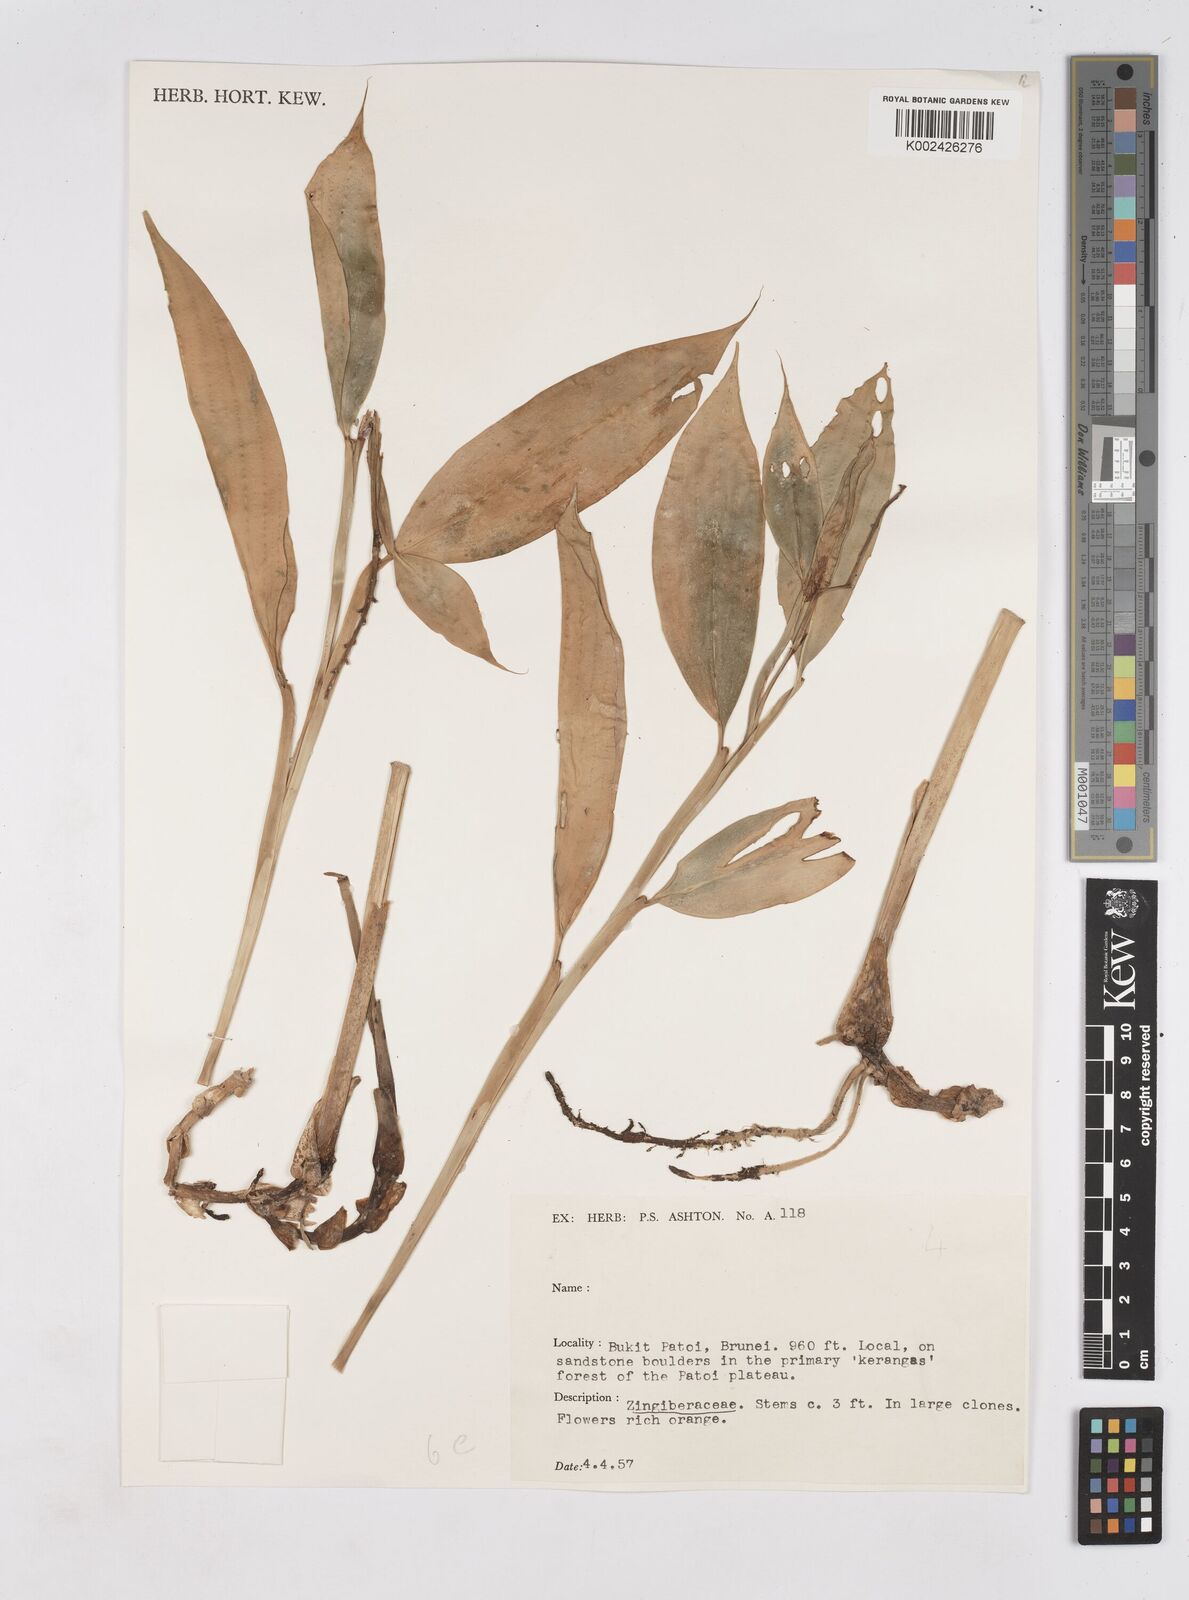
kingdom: Plantae
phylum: Tracheophyta
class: Liliopsida
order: Zingiberales
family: Zingiberaceae
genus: Burbidgea
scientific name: Burbidgea nitida
